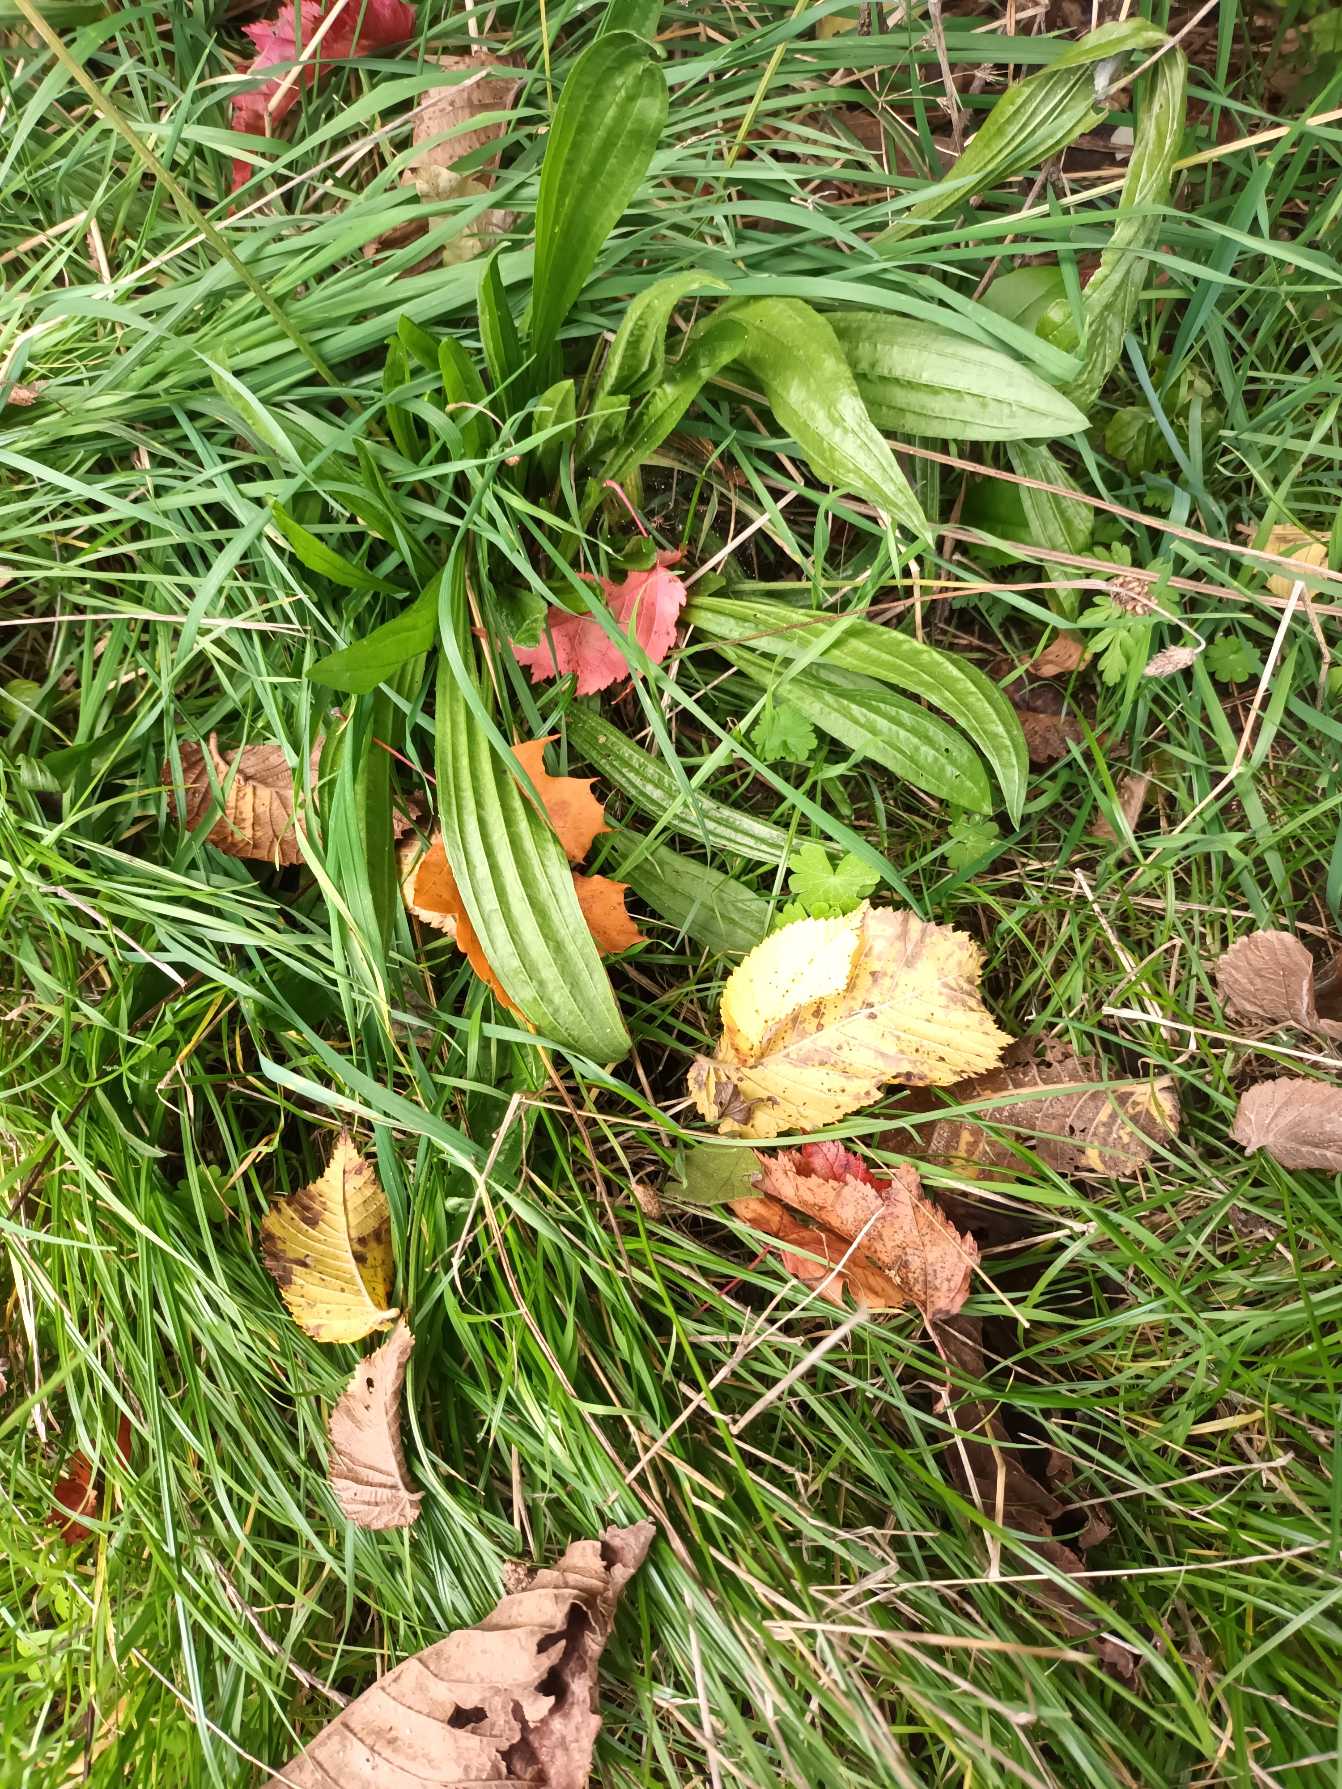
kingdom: Plantae
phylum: Tracheophyta
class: Magnoliopsida
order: Lamiales
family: Plantaginaceae
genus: Plantago
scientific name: Plantago lanceolata
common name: Lancet-vejbred
